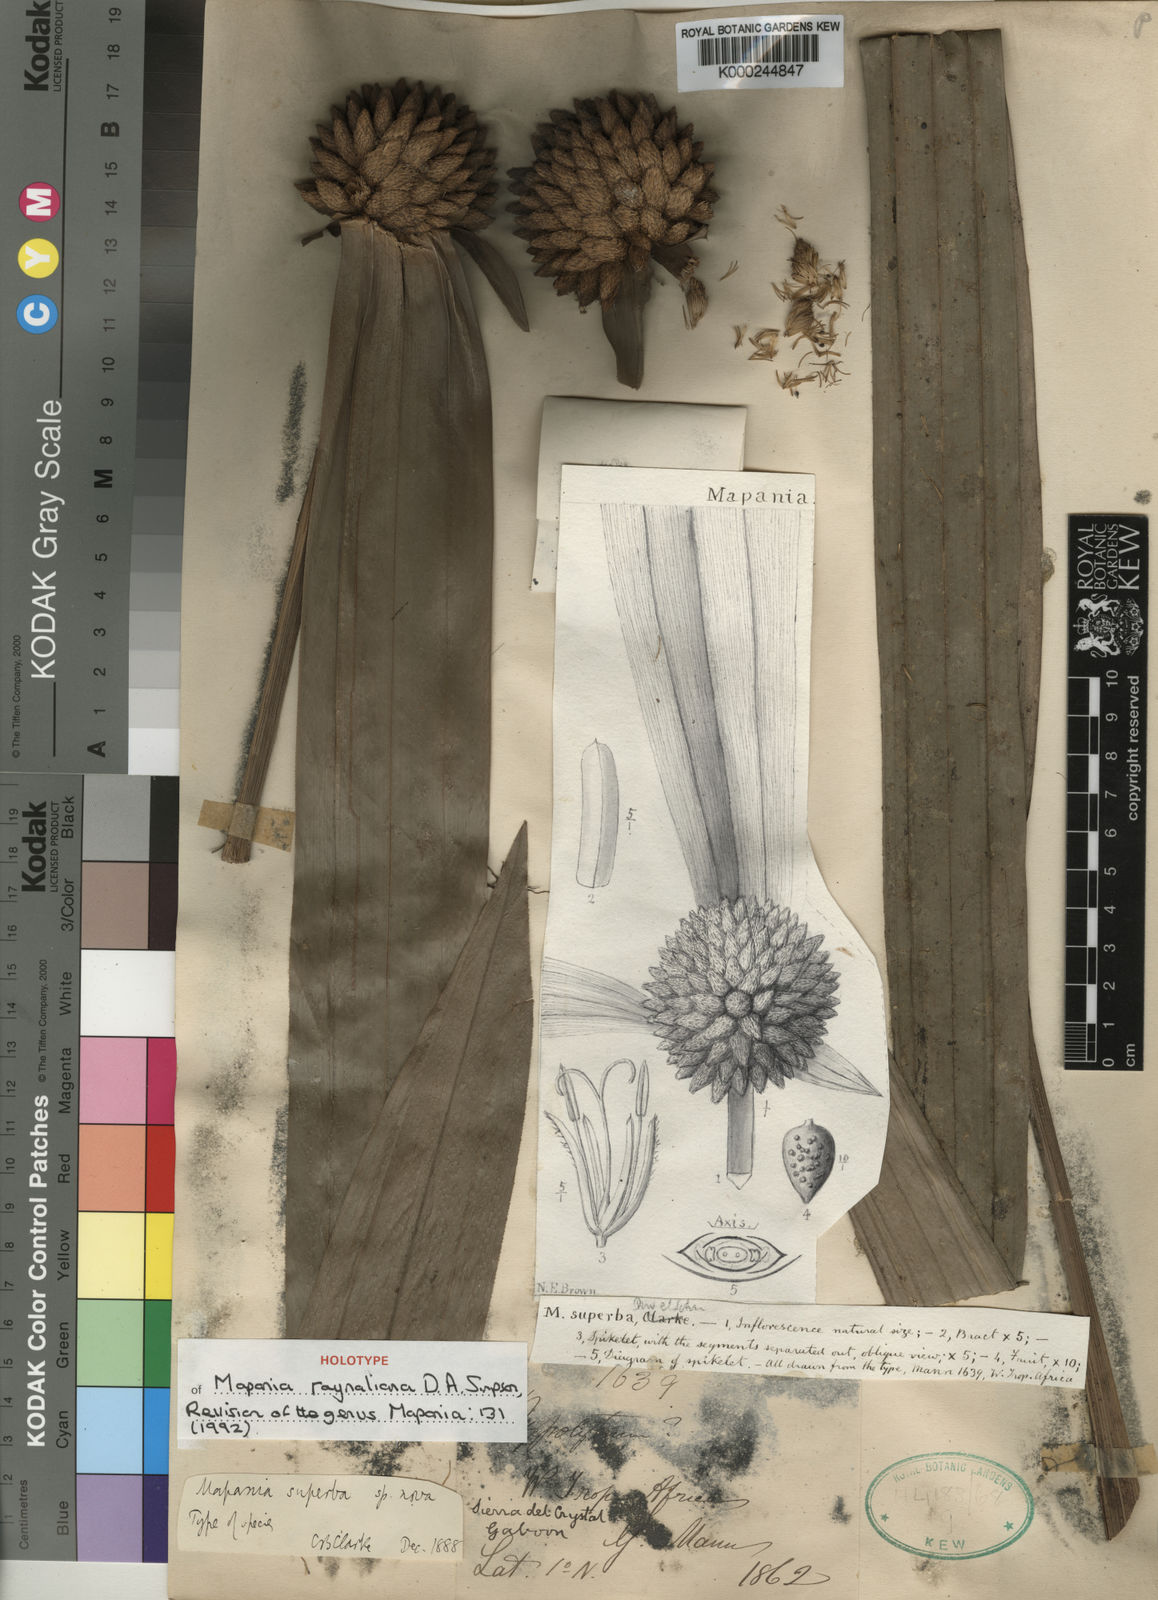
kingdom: Plantae
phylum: Tracheophyta
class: Liliopsida
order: Poales
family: Cyperaceae
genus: Mapania
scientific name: Mapania raynaliana
